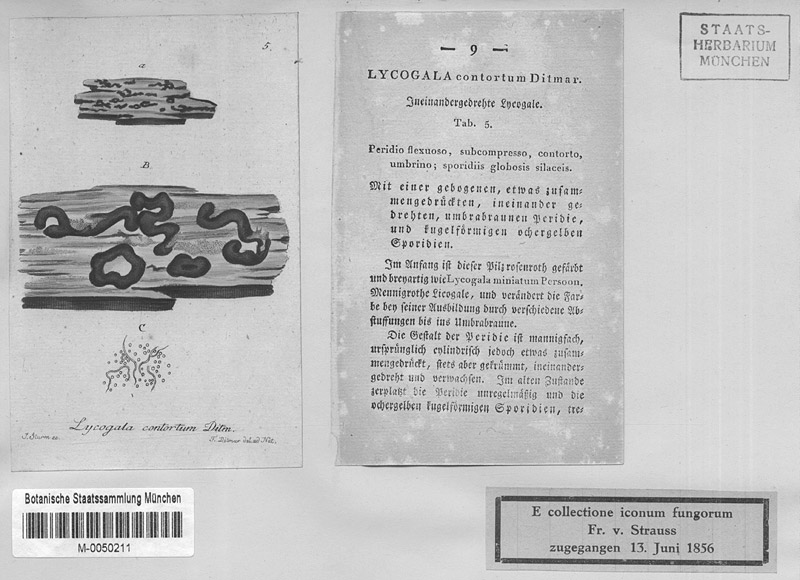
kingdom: Protozoa
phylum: Mycetozoa
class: Myxomycetes
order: Trichiales
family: Trichiaceae
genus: Trichia
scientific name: Trichia contorta
